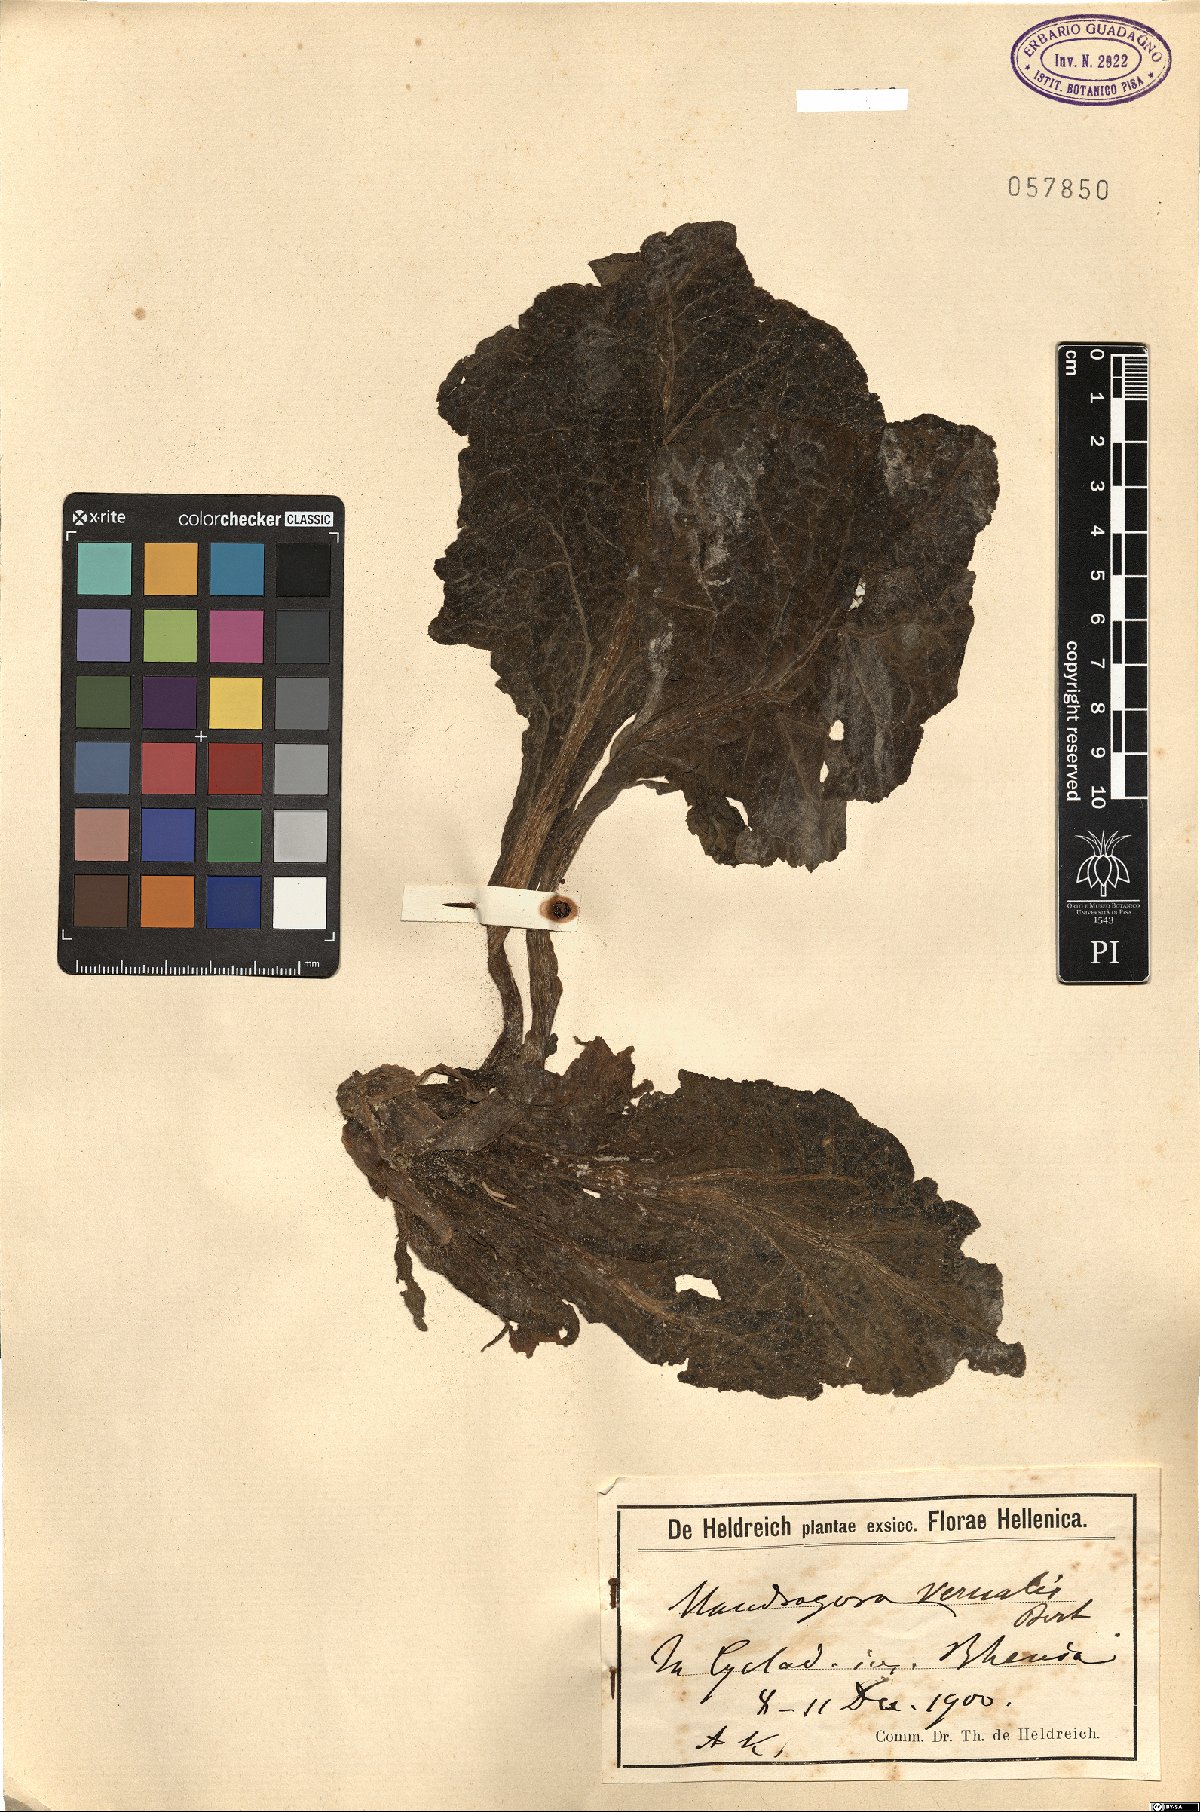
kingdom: Plantae
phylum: Tracheophyta
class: Magnoliopsida
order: Solanales
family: Solanaceae
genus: Mandragora
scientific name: Mandragora officinarum
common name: Mandrake
